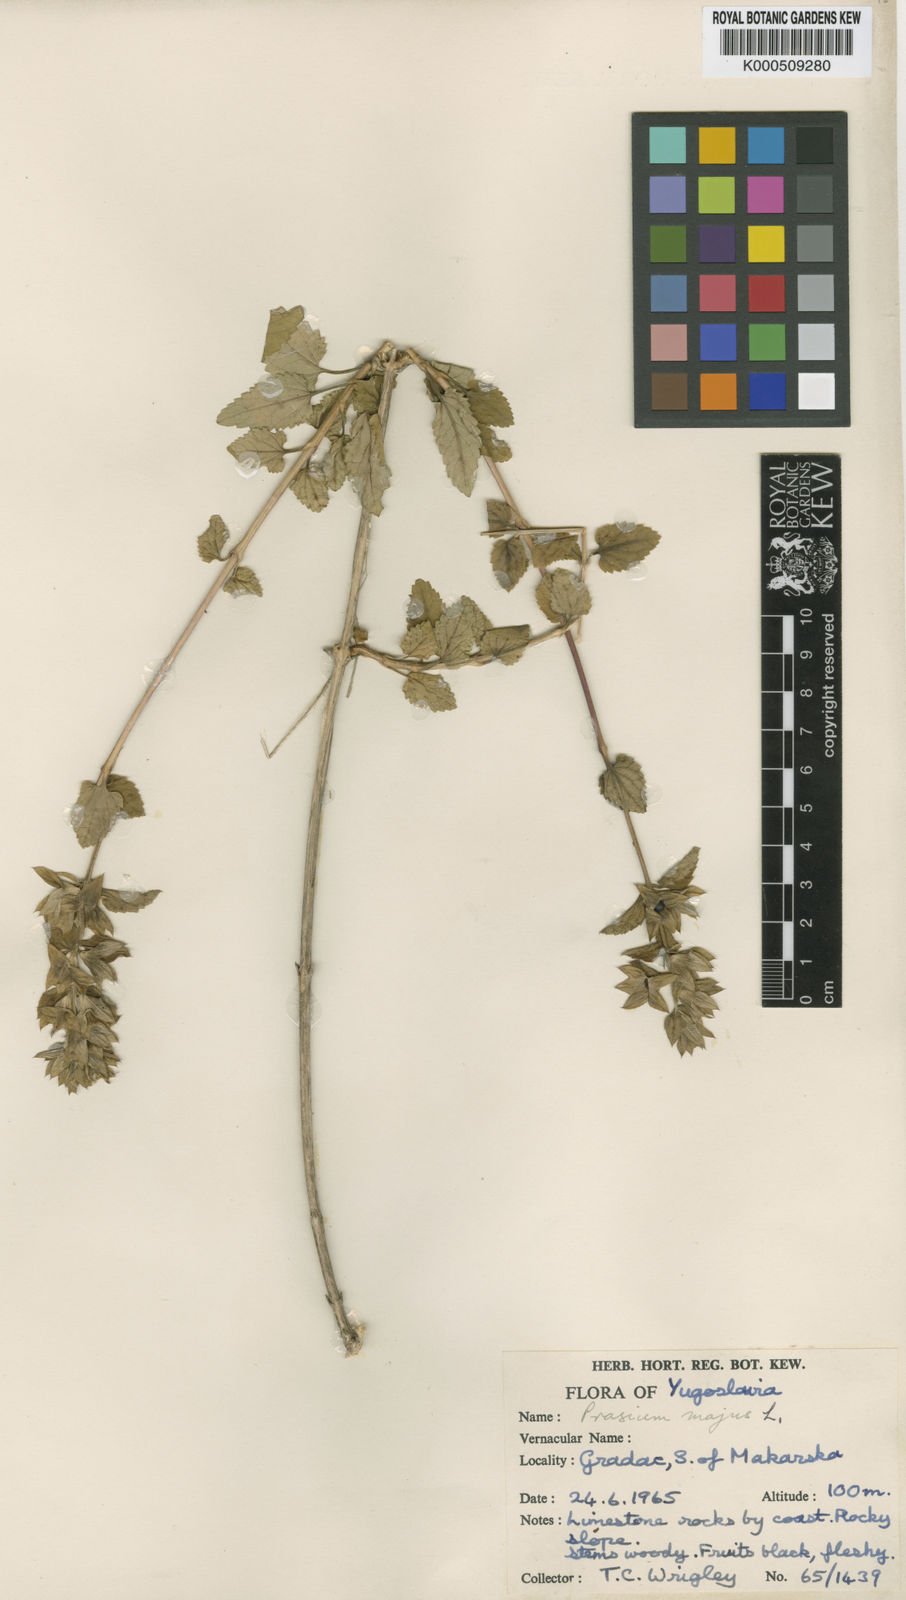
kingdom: Plantae
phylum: Tracheophyta
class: Magnoliopsida
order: Lamiales
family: Lamiaceae
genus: Prasium
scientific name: Prasium majus
